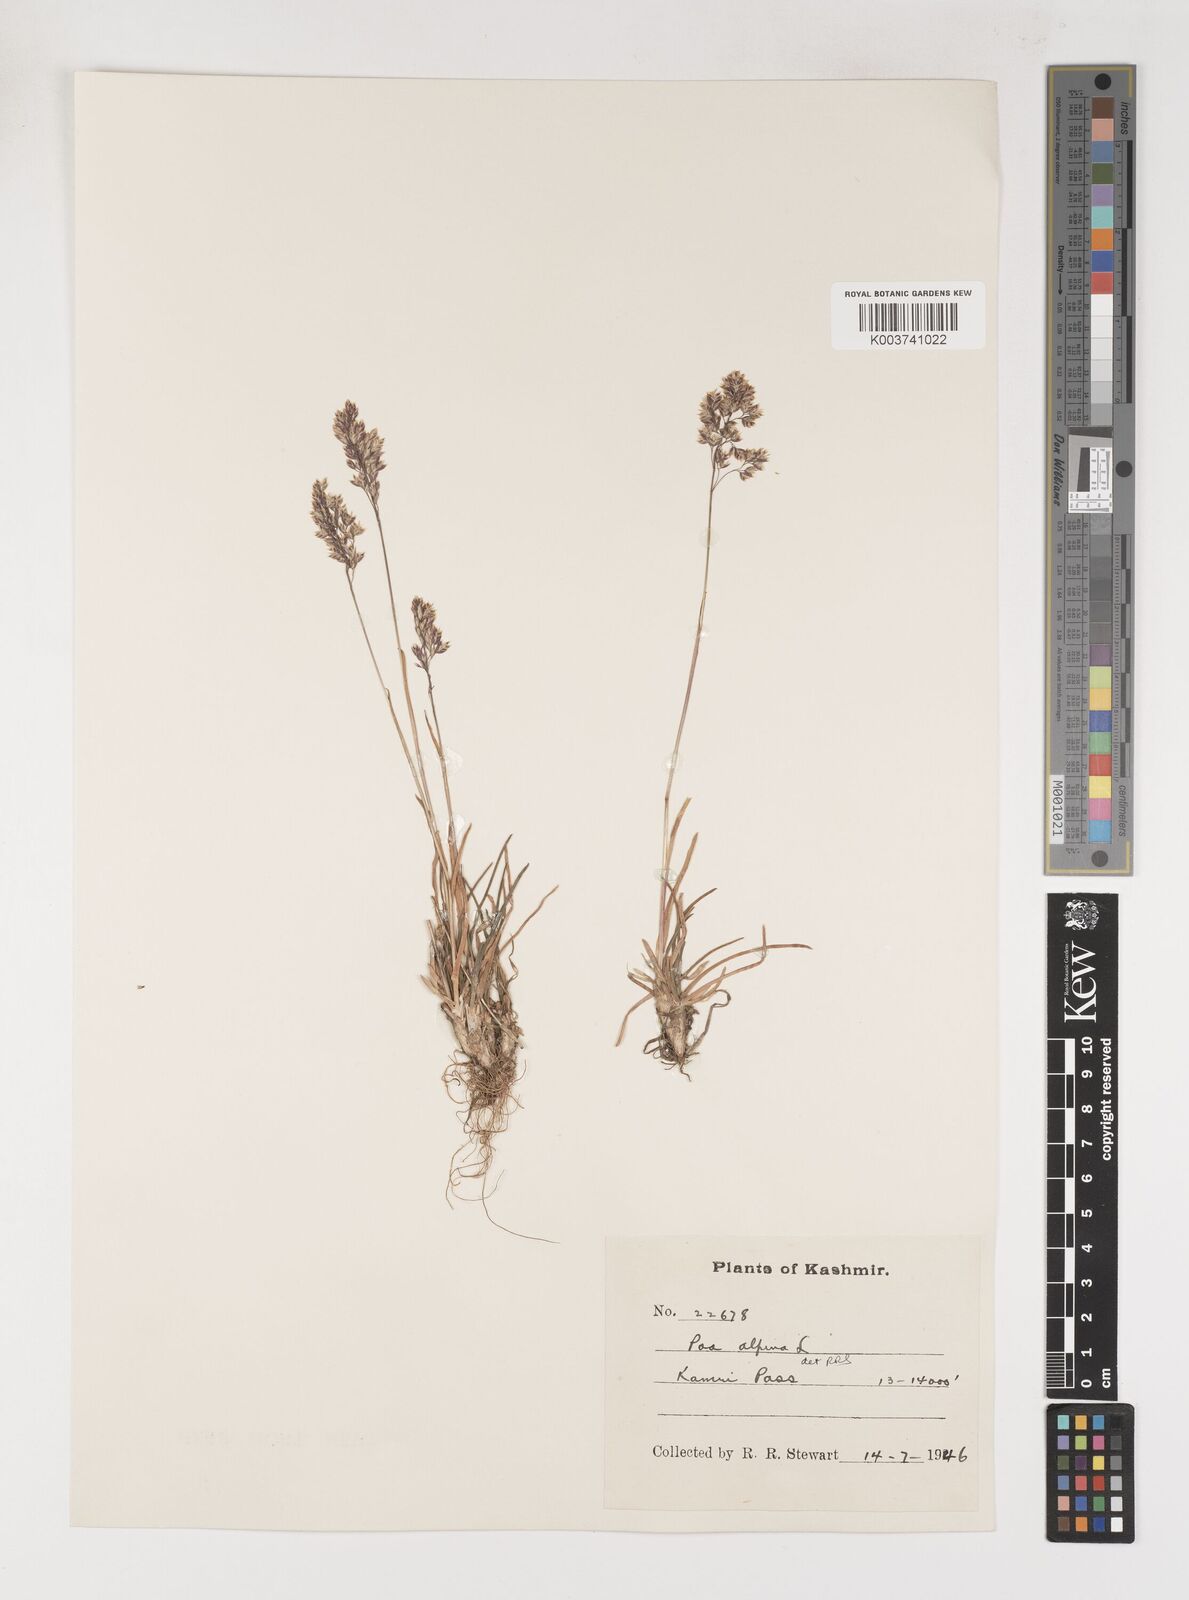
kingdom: Plantae
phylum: Tracheophyta
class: Liliopsida
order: Poales
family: Poaceae
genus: Poa
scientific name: Poa alpina
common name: Alpine bluegrass
